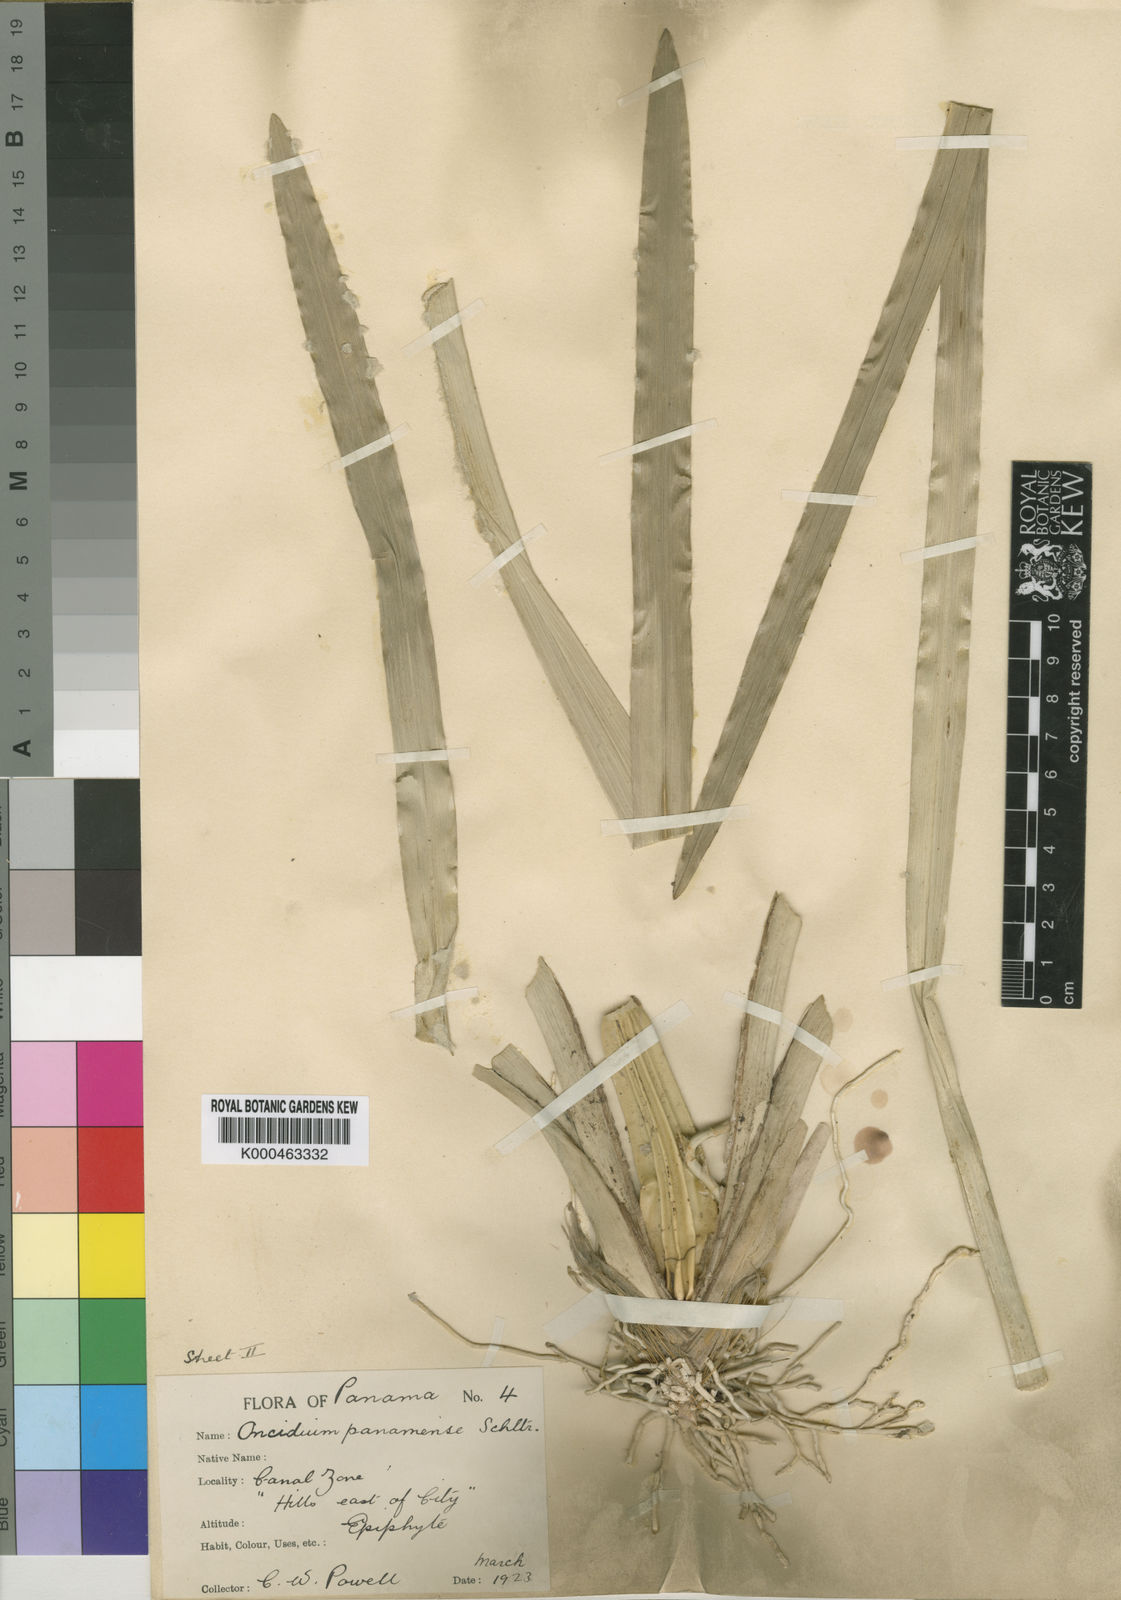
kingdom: Plantae
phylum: Tracheophyta
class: Liliopsida
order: Asparagales
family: Orchidaceae
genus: Oncidium
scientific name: Oncidium panamense
